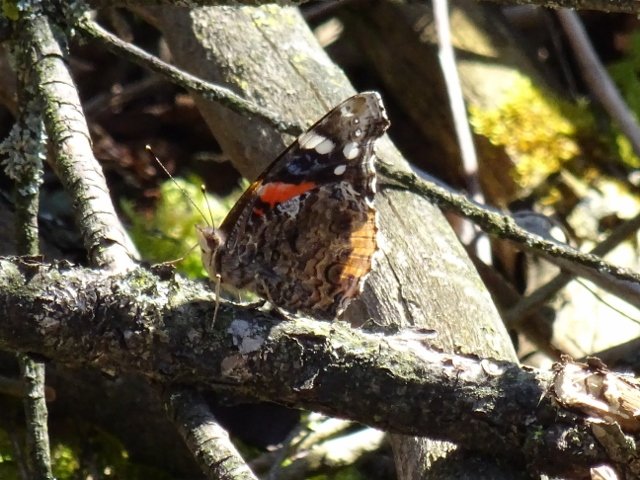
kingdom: Animalia
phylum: Arthropoda
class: Insecta
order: Lepidoptera
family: Nymphalidae
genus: Vanessa
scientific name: Vanessa atalanta
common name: Red Admiral
